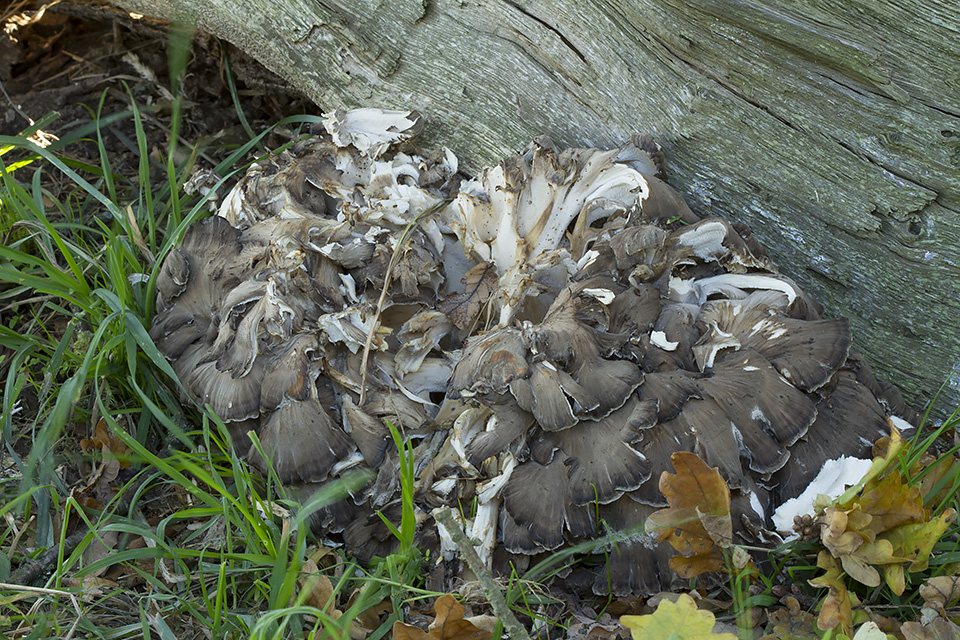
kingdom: Fungi
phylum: Basidiomycota
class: Agaricomycetes
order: Polyporales
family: Grifolaceae
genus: Grifola
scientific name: Grifola frondosa
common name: tueporesvamp
